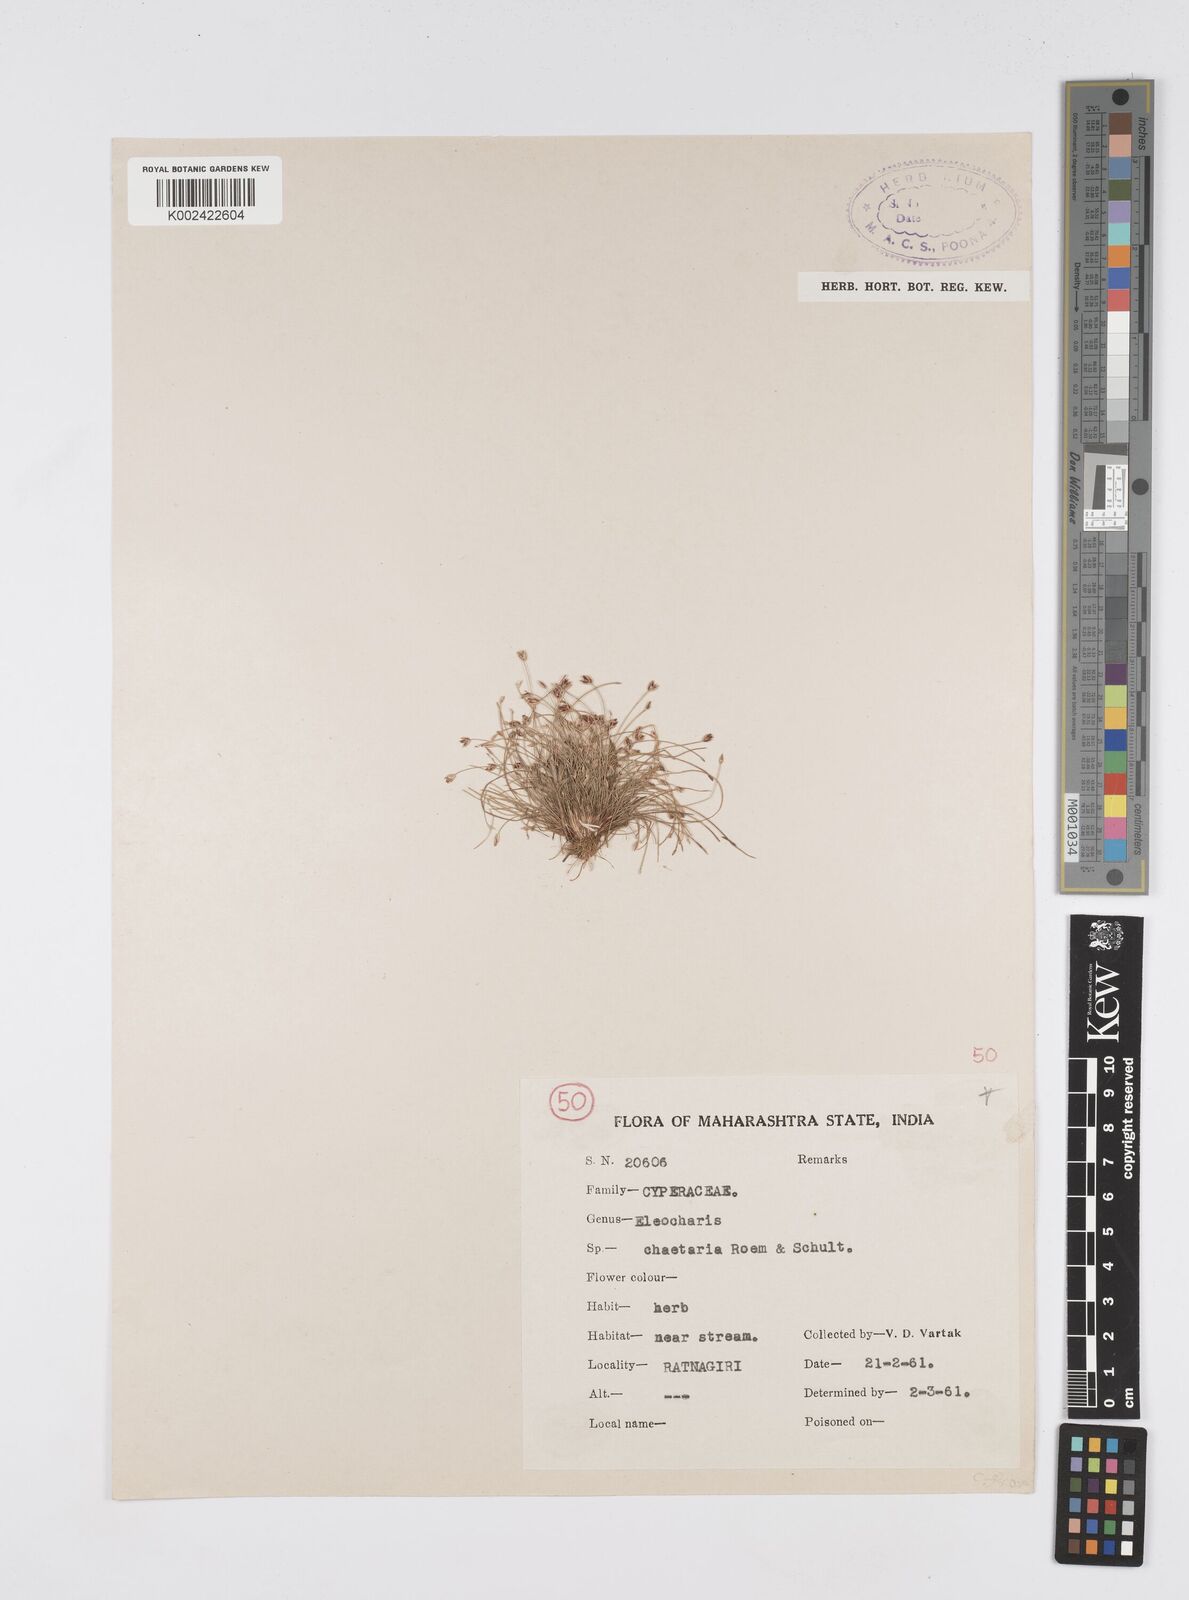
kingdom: Plantae
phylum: Tracheophyta
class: Liliopsida
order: Poales
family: Cyperaceae
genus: Eleocharis
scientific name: Eleocharis retroflexa
